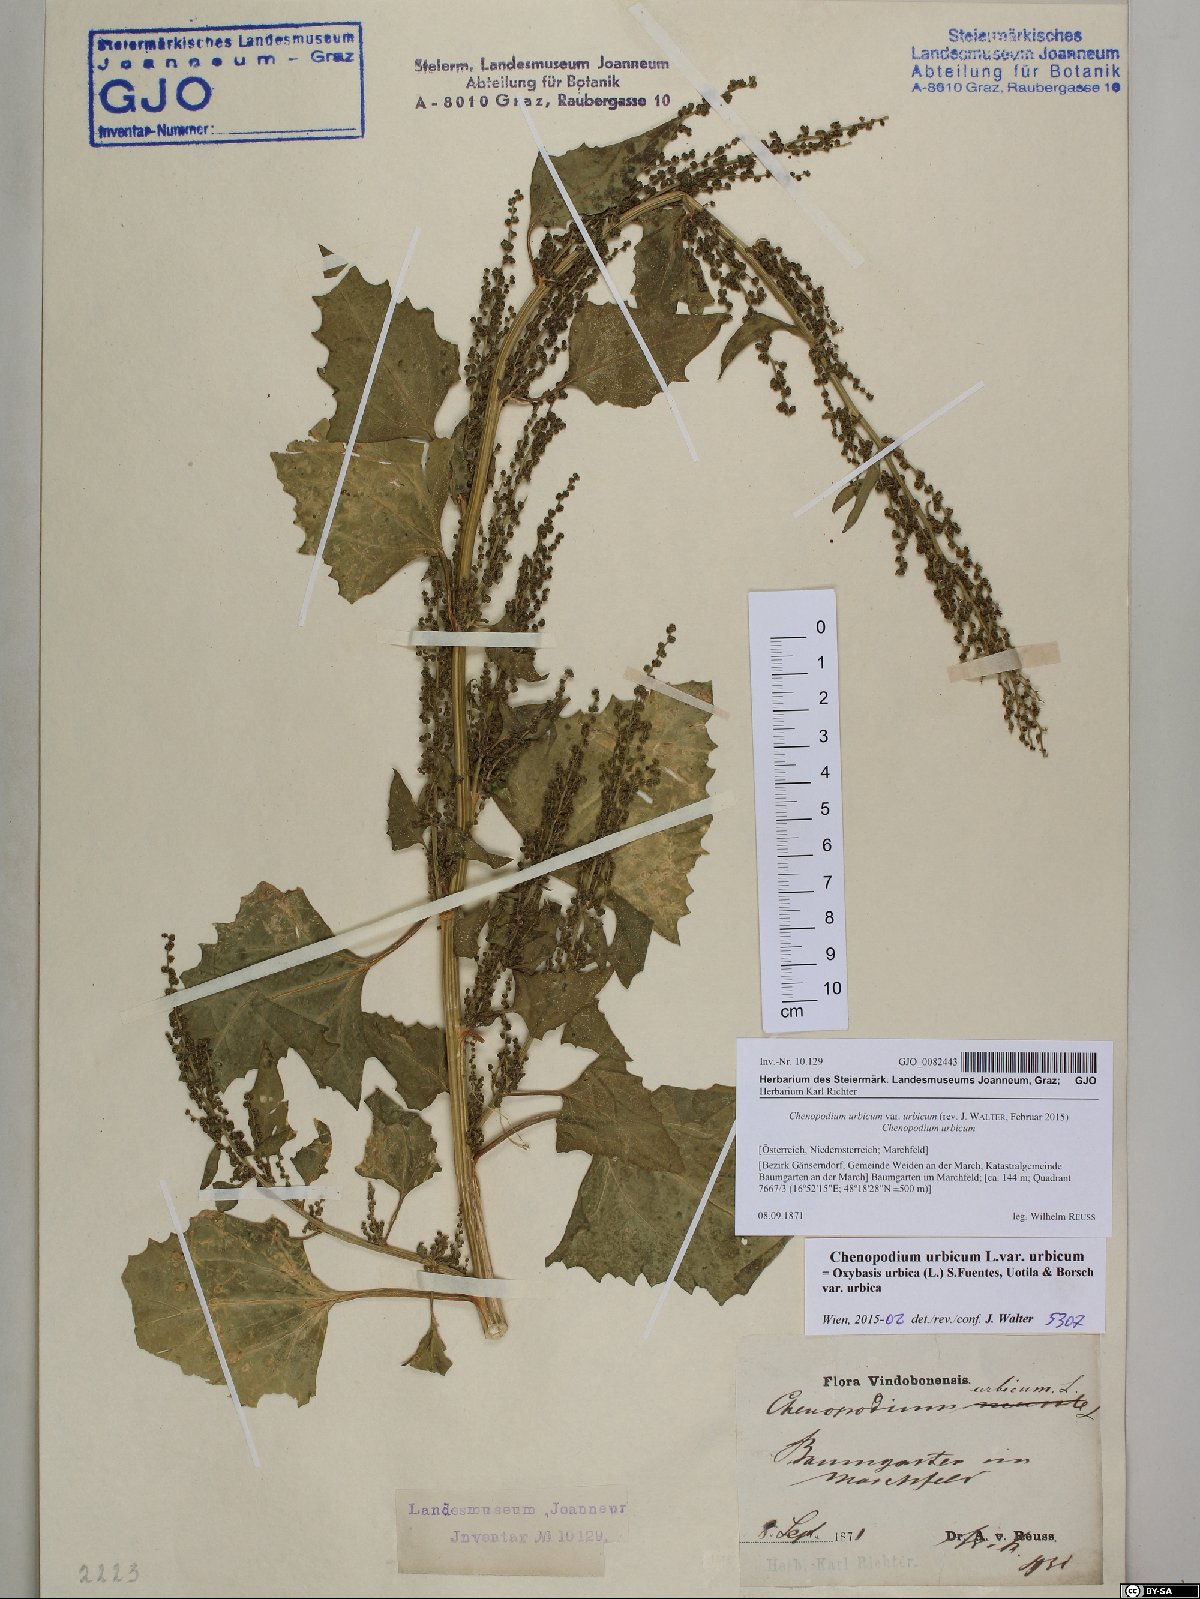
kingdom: Plantae
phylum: Tracheophyta
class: Magnoliopsida
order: Caryophyllales
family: Amaranthaceae
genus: Oxybasis
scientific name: Oxybasis urbica
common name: City goosefoot
